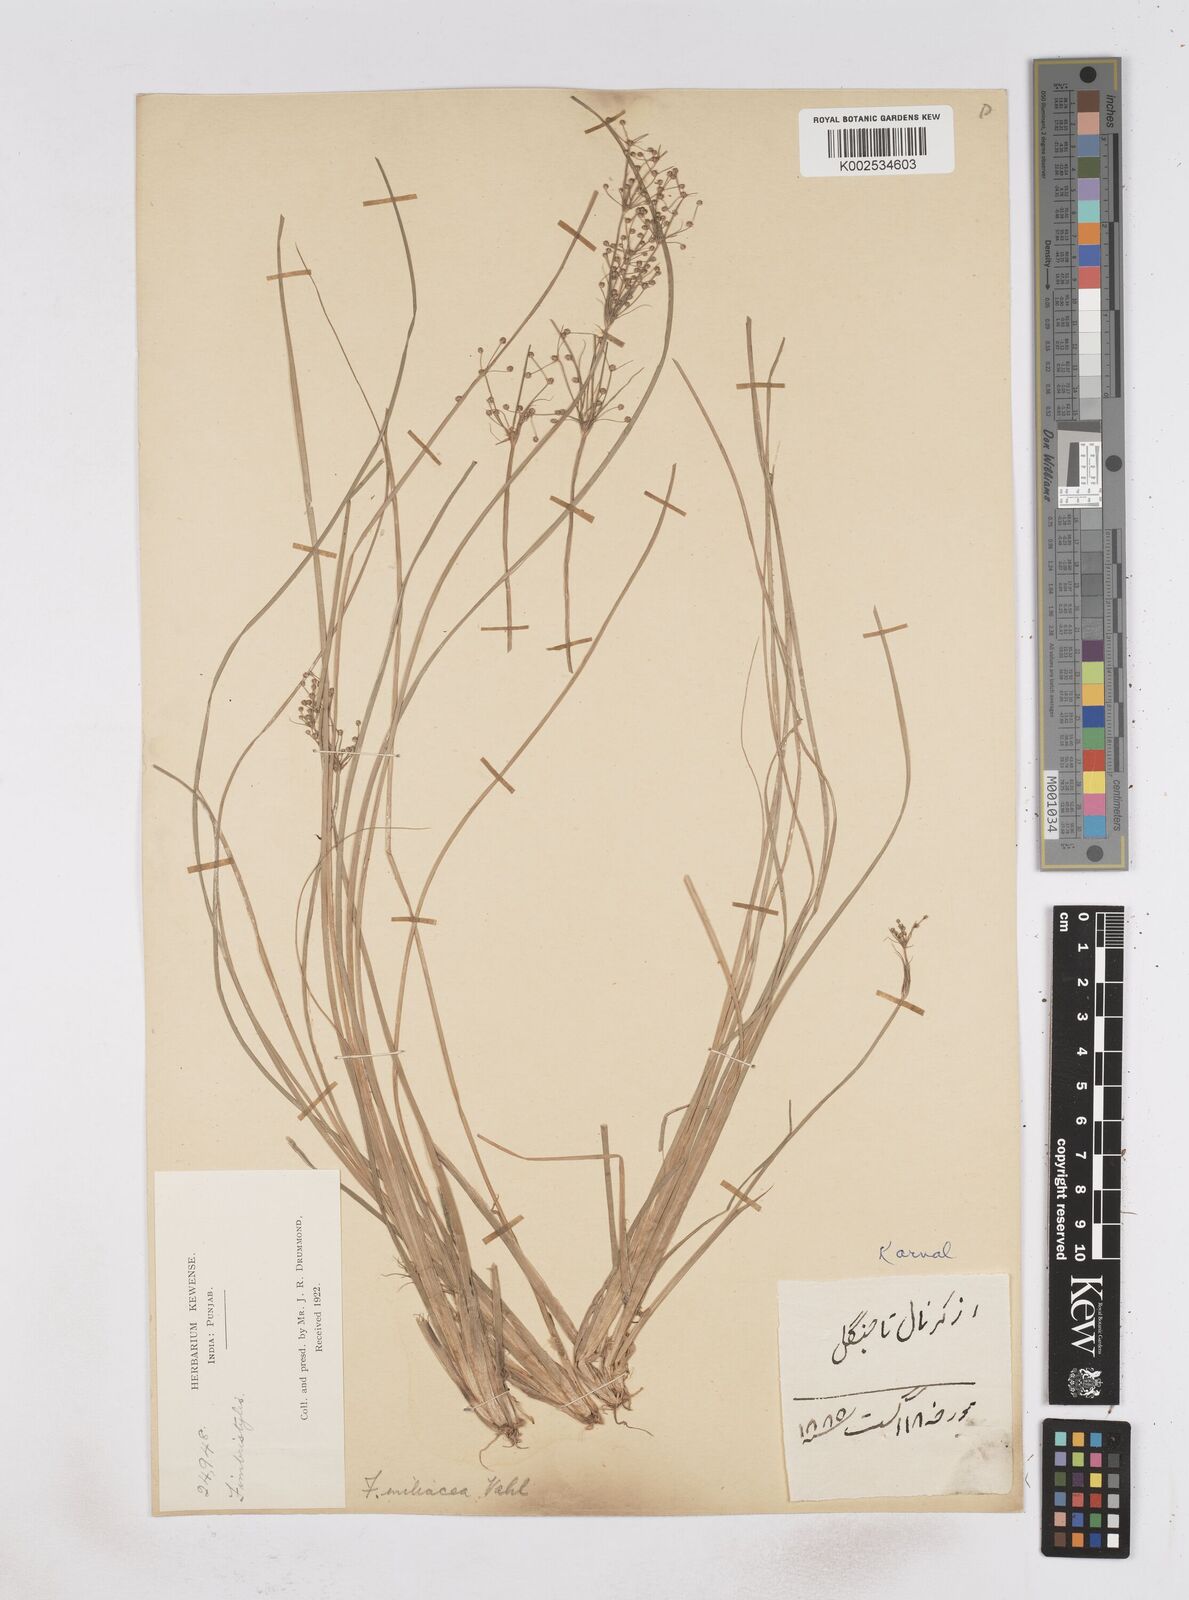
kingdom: Plantae
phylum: Tracheophyta
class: Liliopsida
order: Poales
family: Cyperaceae
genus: Fimbristylis
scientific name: Fimbristylis littoralis
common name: Fimbry
